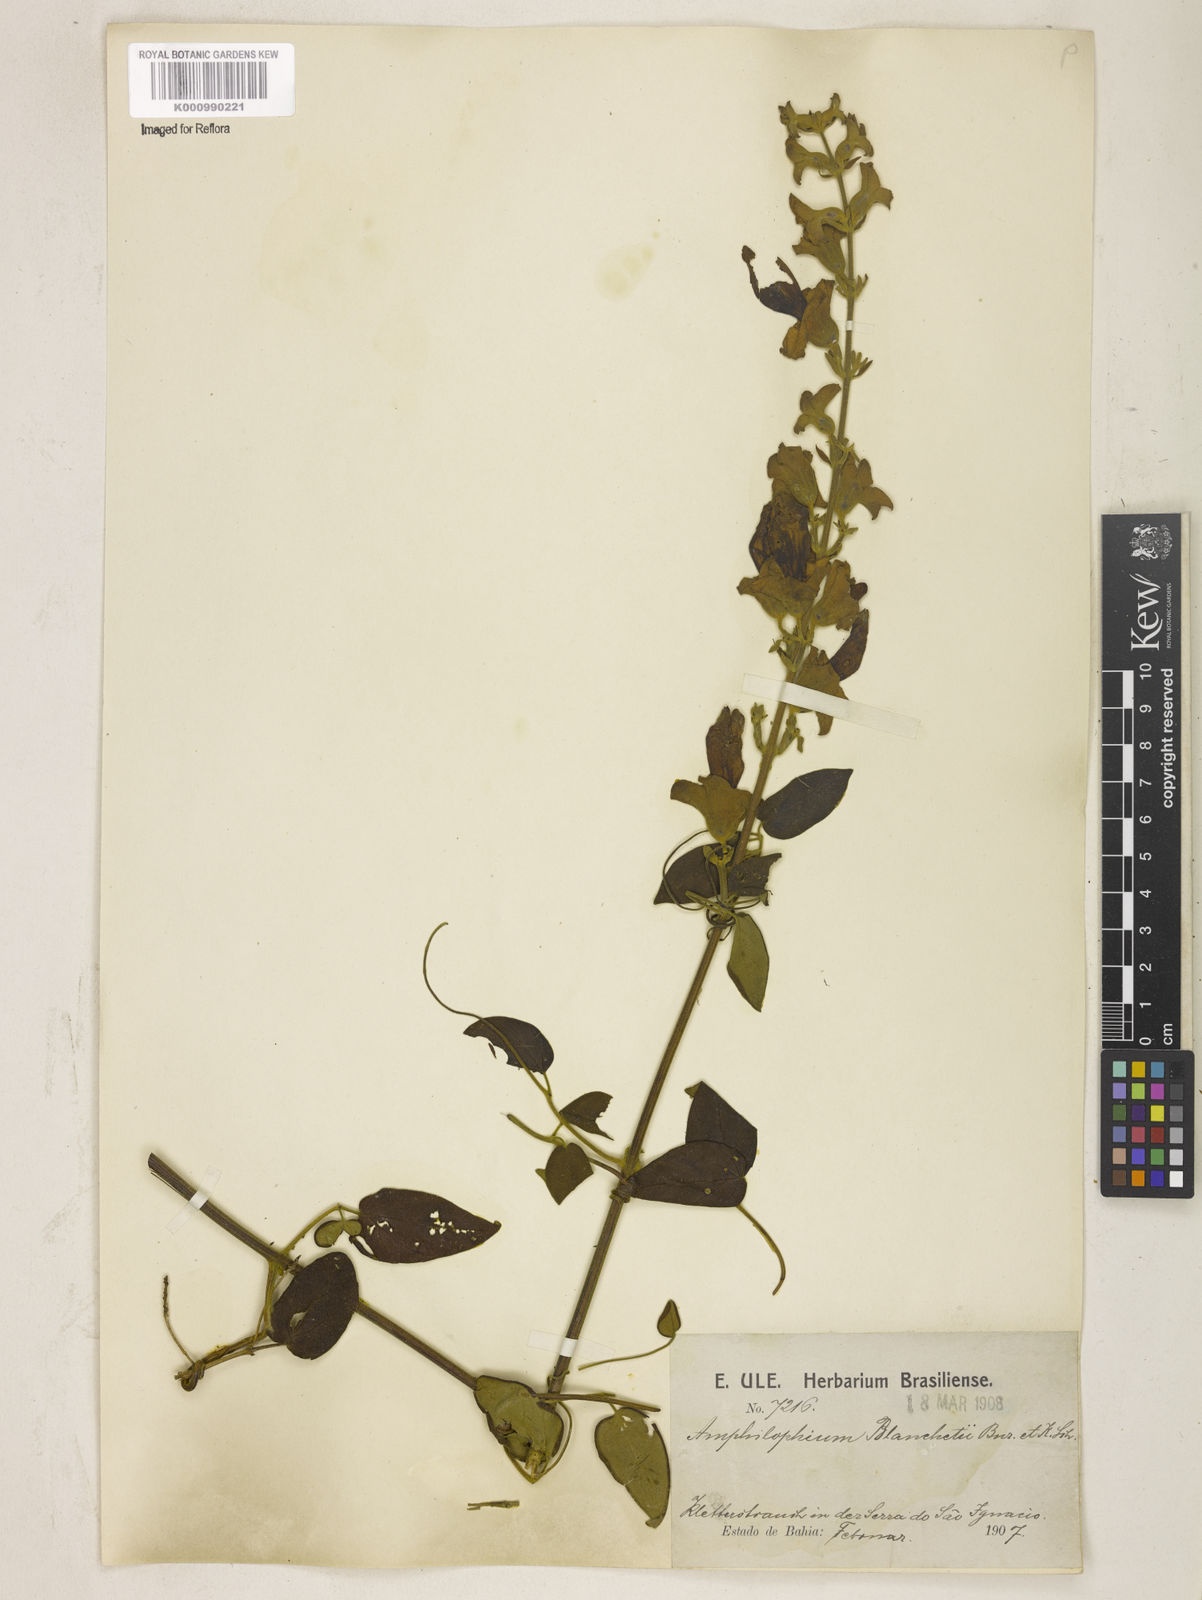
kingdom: Plantae
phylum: Tracheophyta
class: Magnoliopsida
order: Lamiales
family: Bignoniaceae
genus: Amphilophium
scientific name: Amphilophium paniculatum
